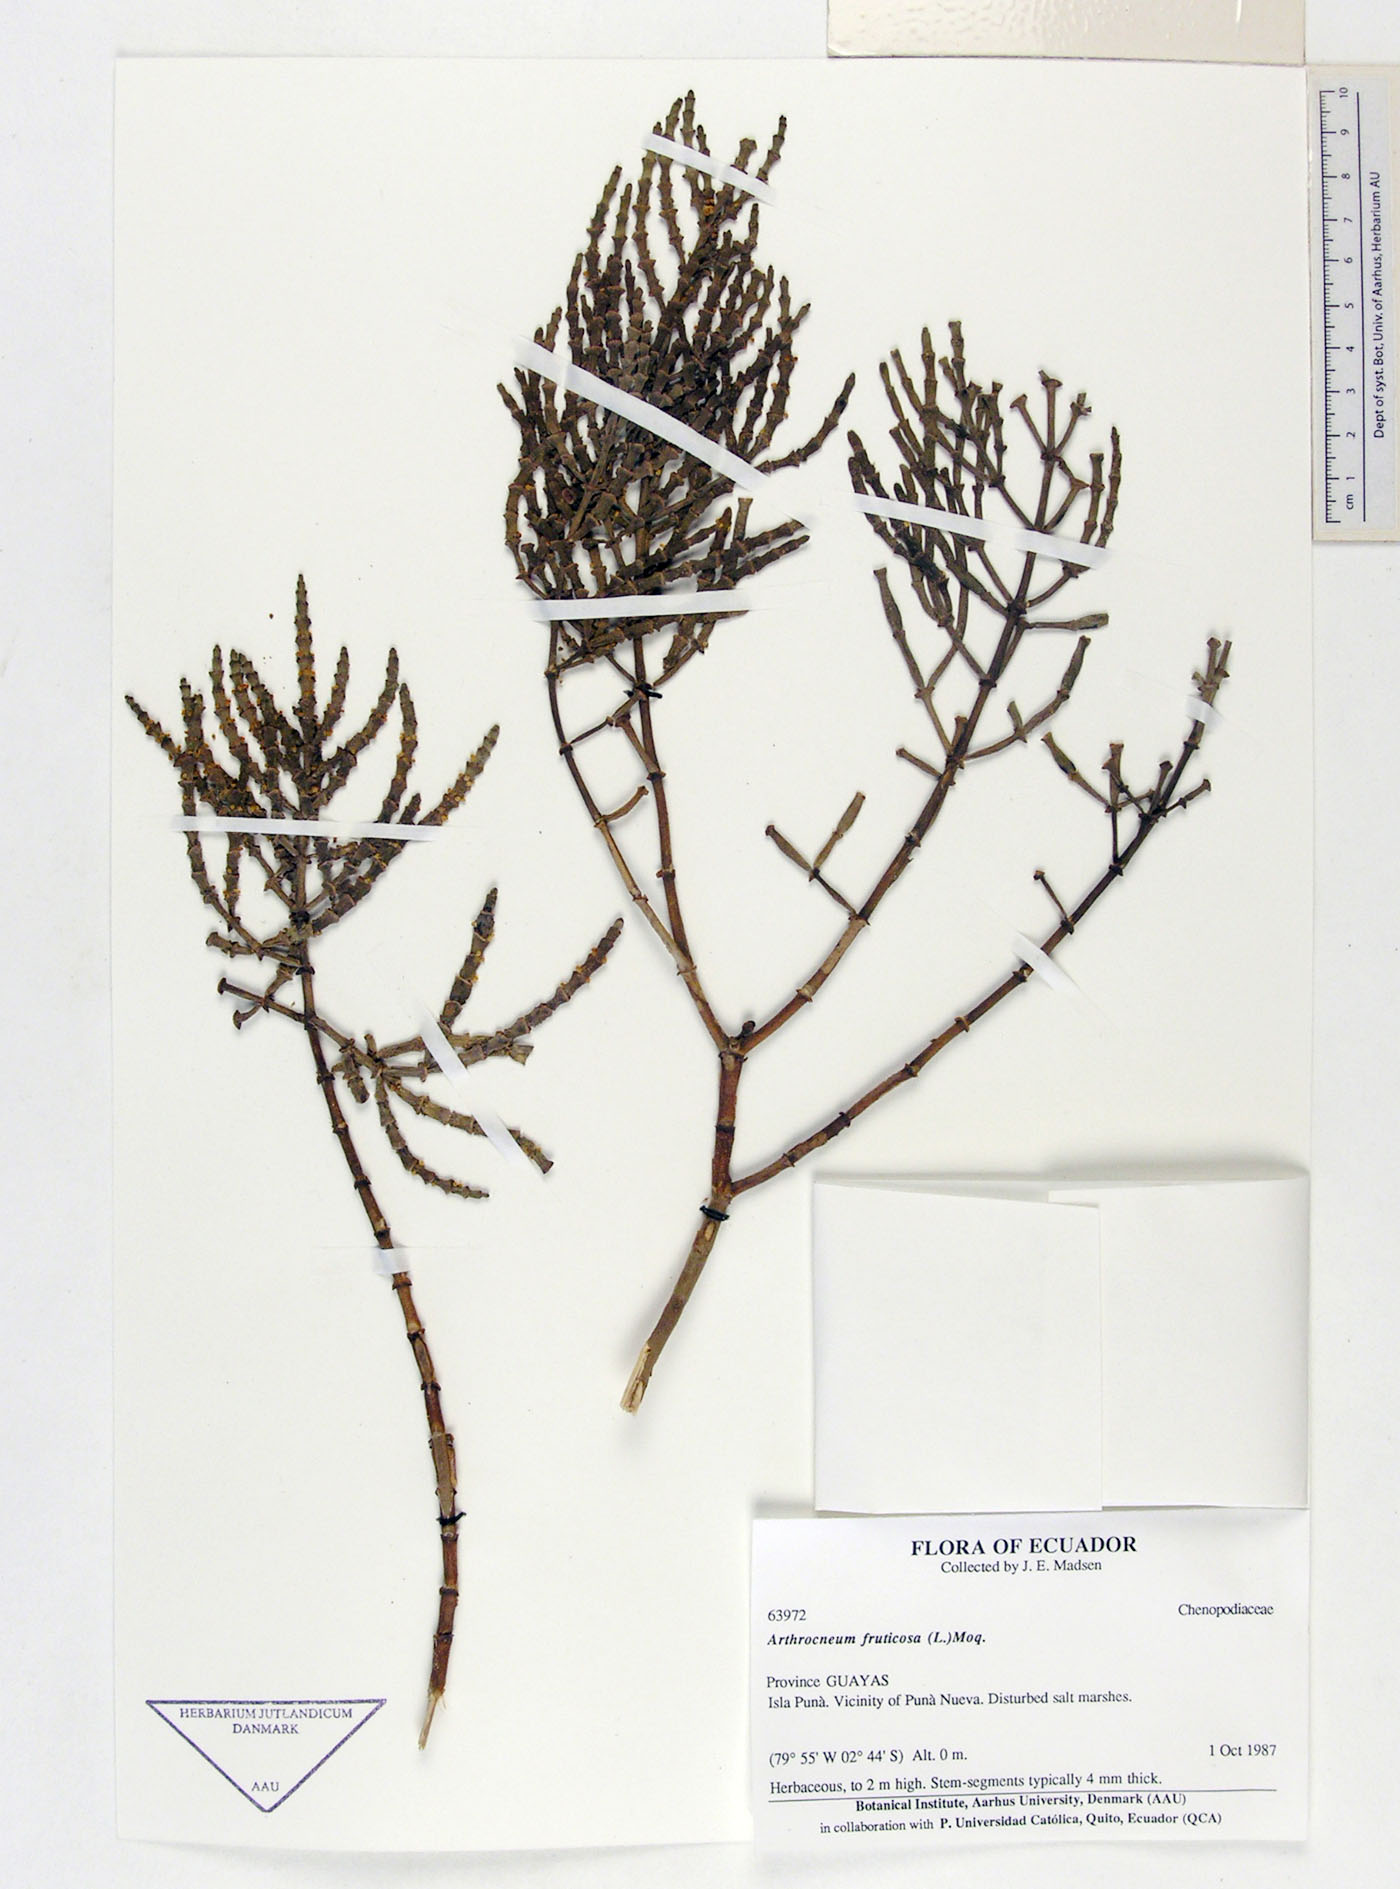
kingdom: Plantae
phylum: Tracheophyta
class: Magnoliopsida
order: Caryophyllales
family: Amaranthaceae
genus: Mangleticornia
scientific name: Mangleticornia ecuadorensis
